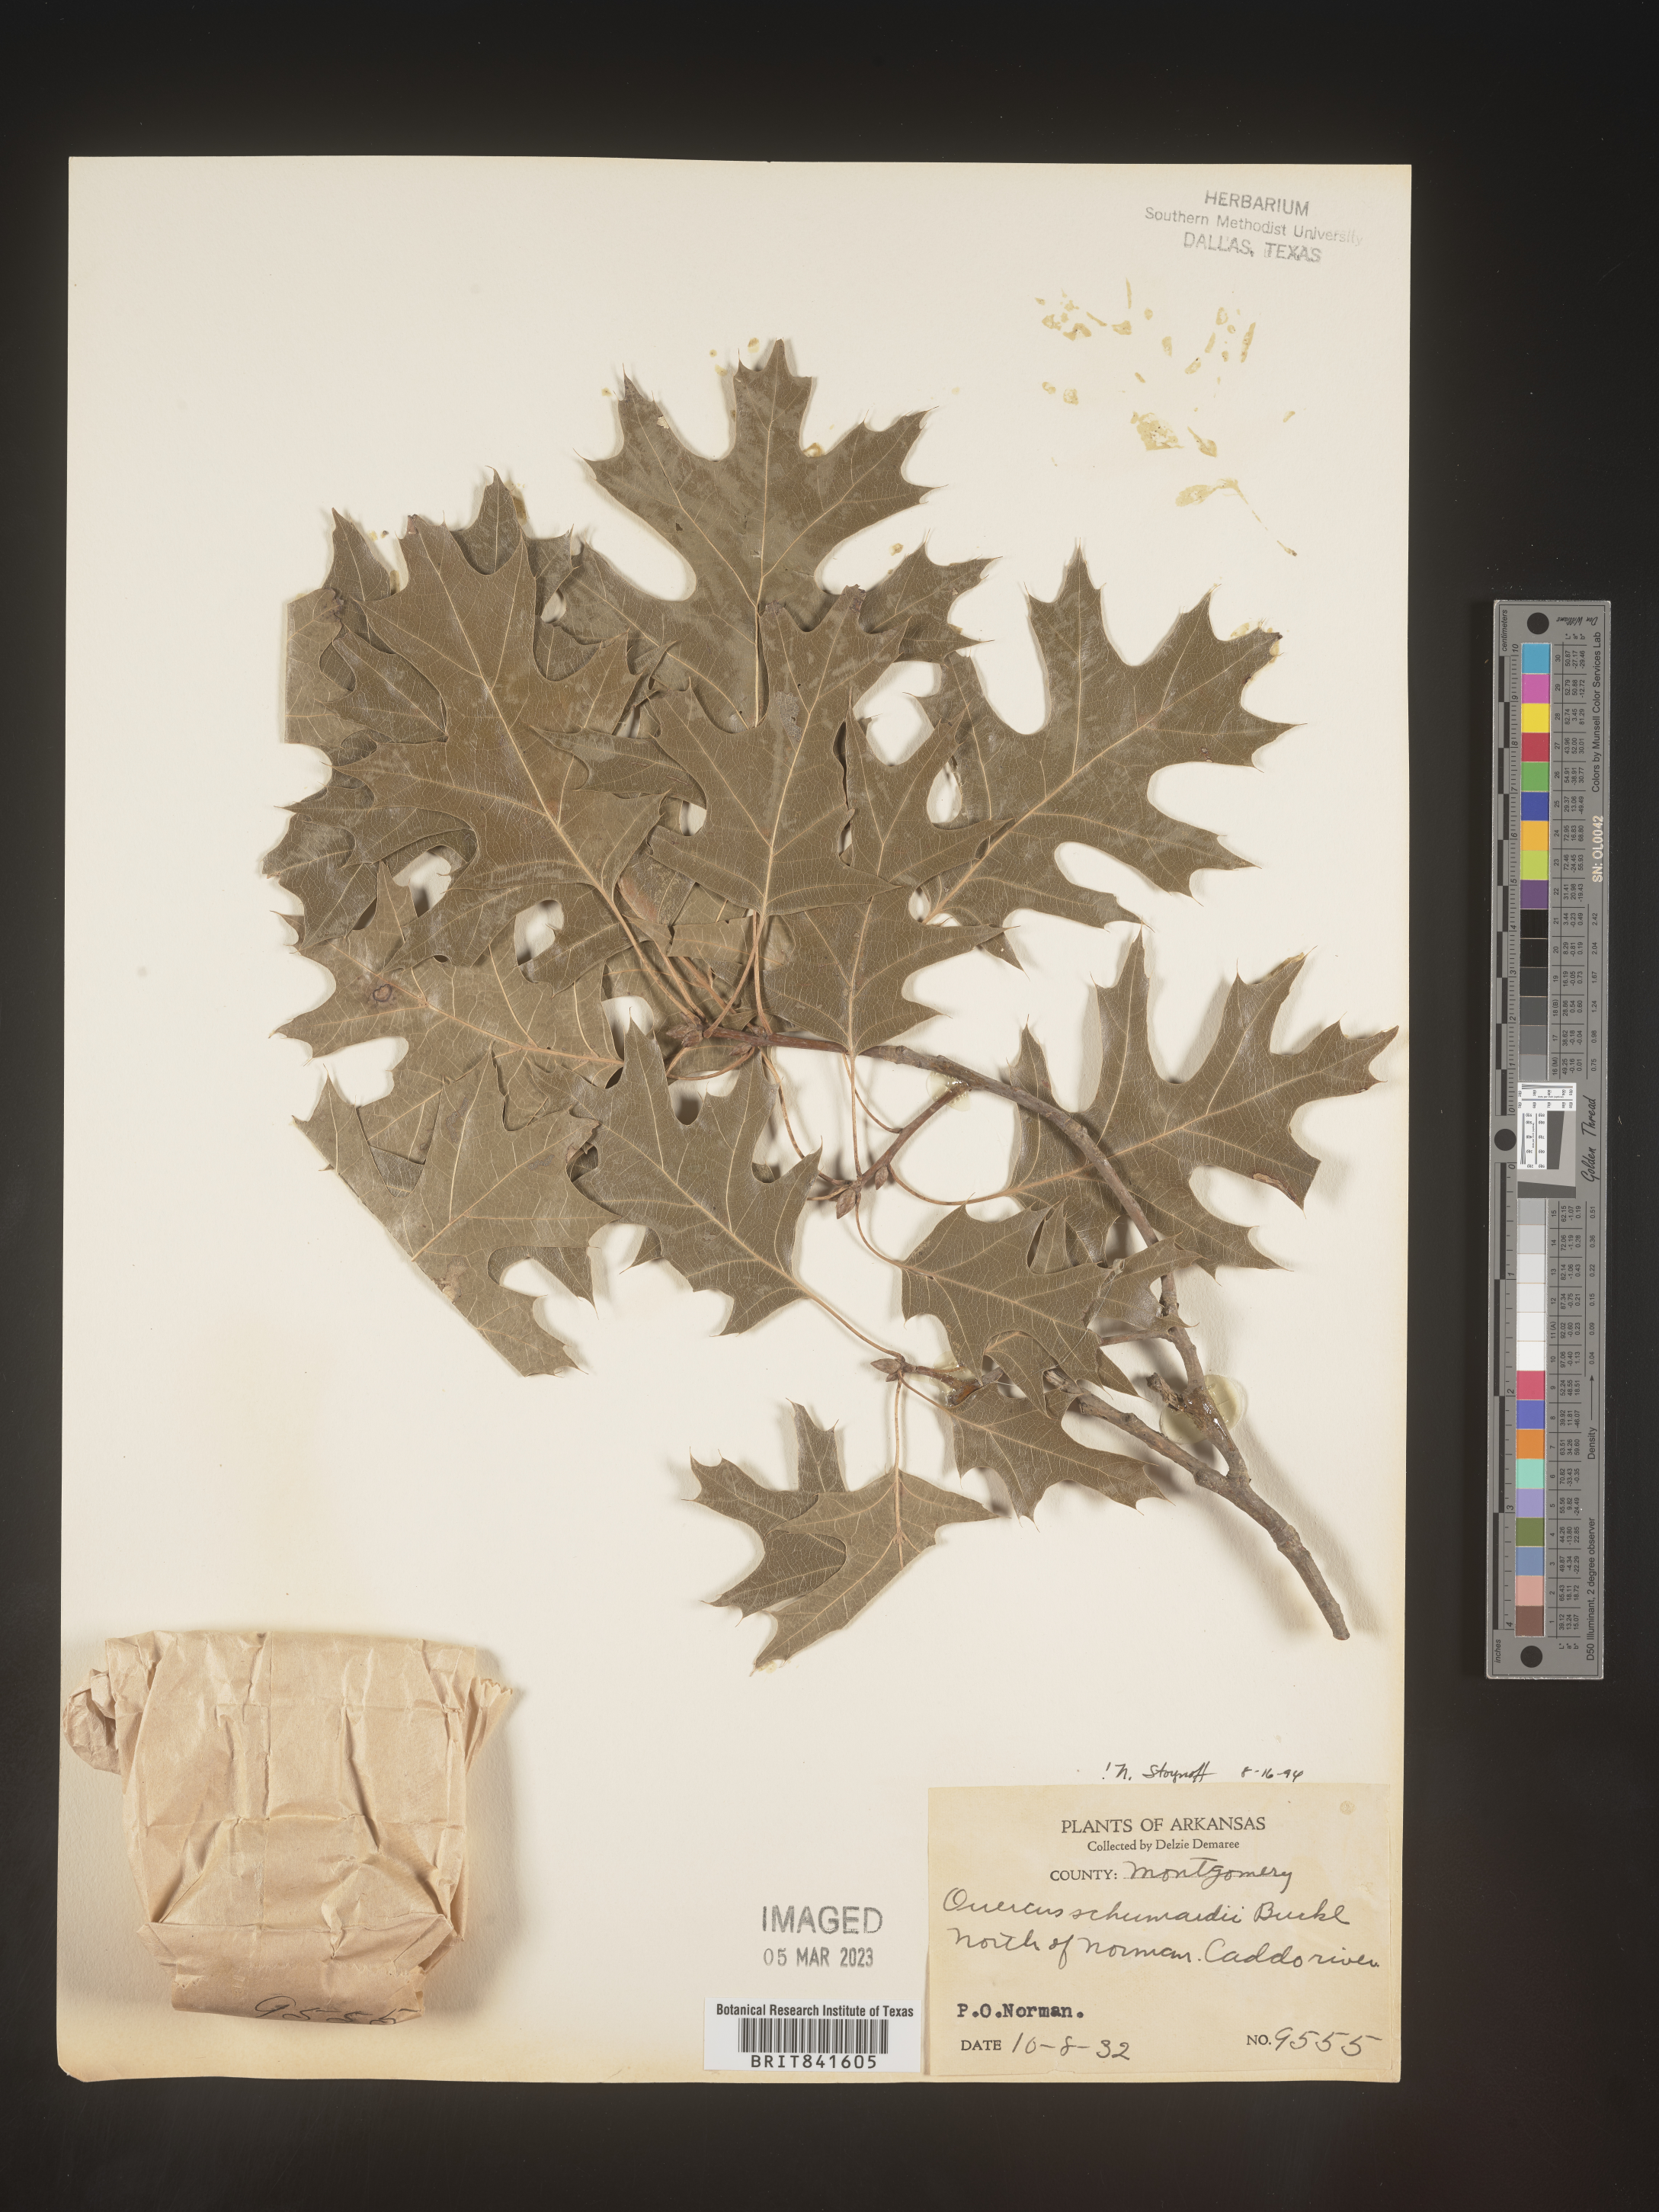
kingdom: Plantae
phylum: Tracheophyta
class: Magnoliopsida
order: Fagales
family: Fagaceae
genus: Quercus
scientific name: Quercus shumardii
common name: Shumard oak
